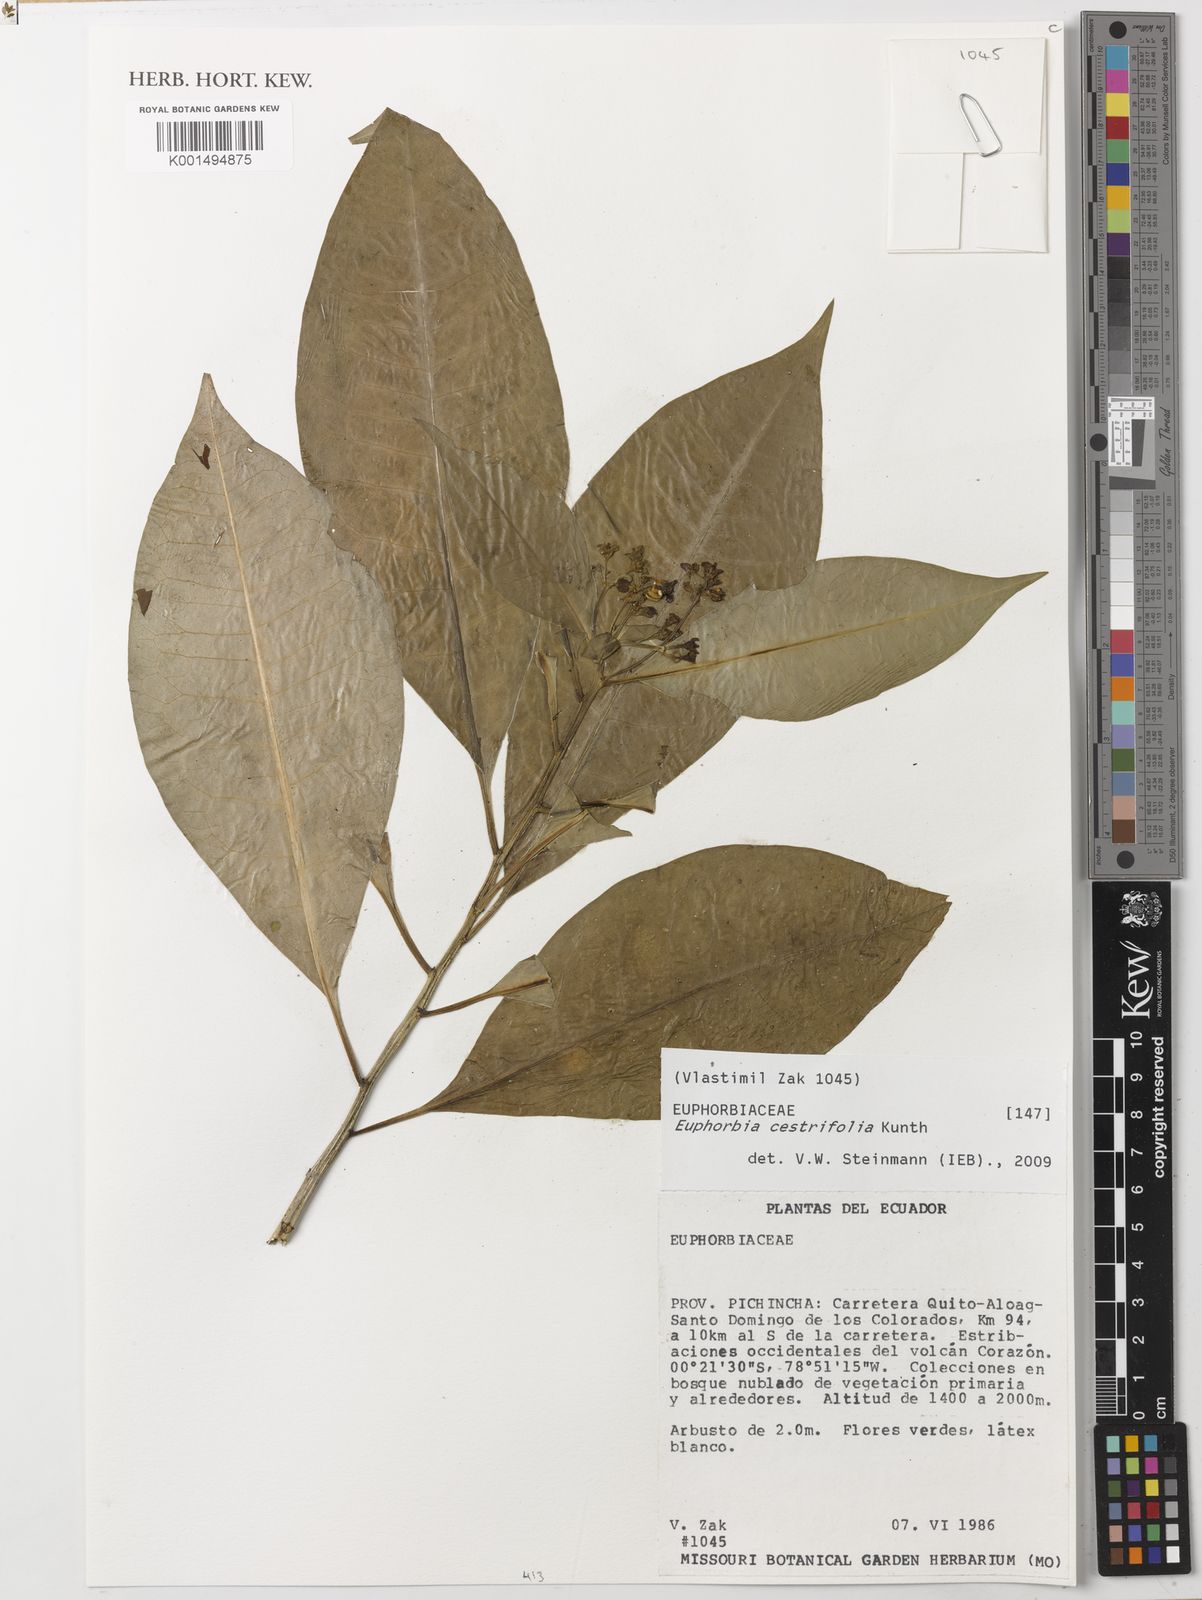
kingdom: Plantae
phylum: Tracheophyta
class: Magnoliopsida
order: Malpighiales
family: Euphorbiaceae
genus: Euphorbia
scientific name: Euphorbia laurifolia
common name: Lechero
